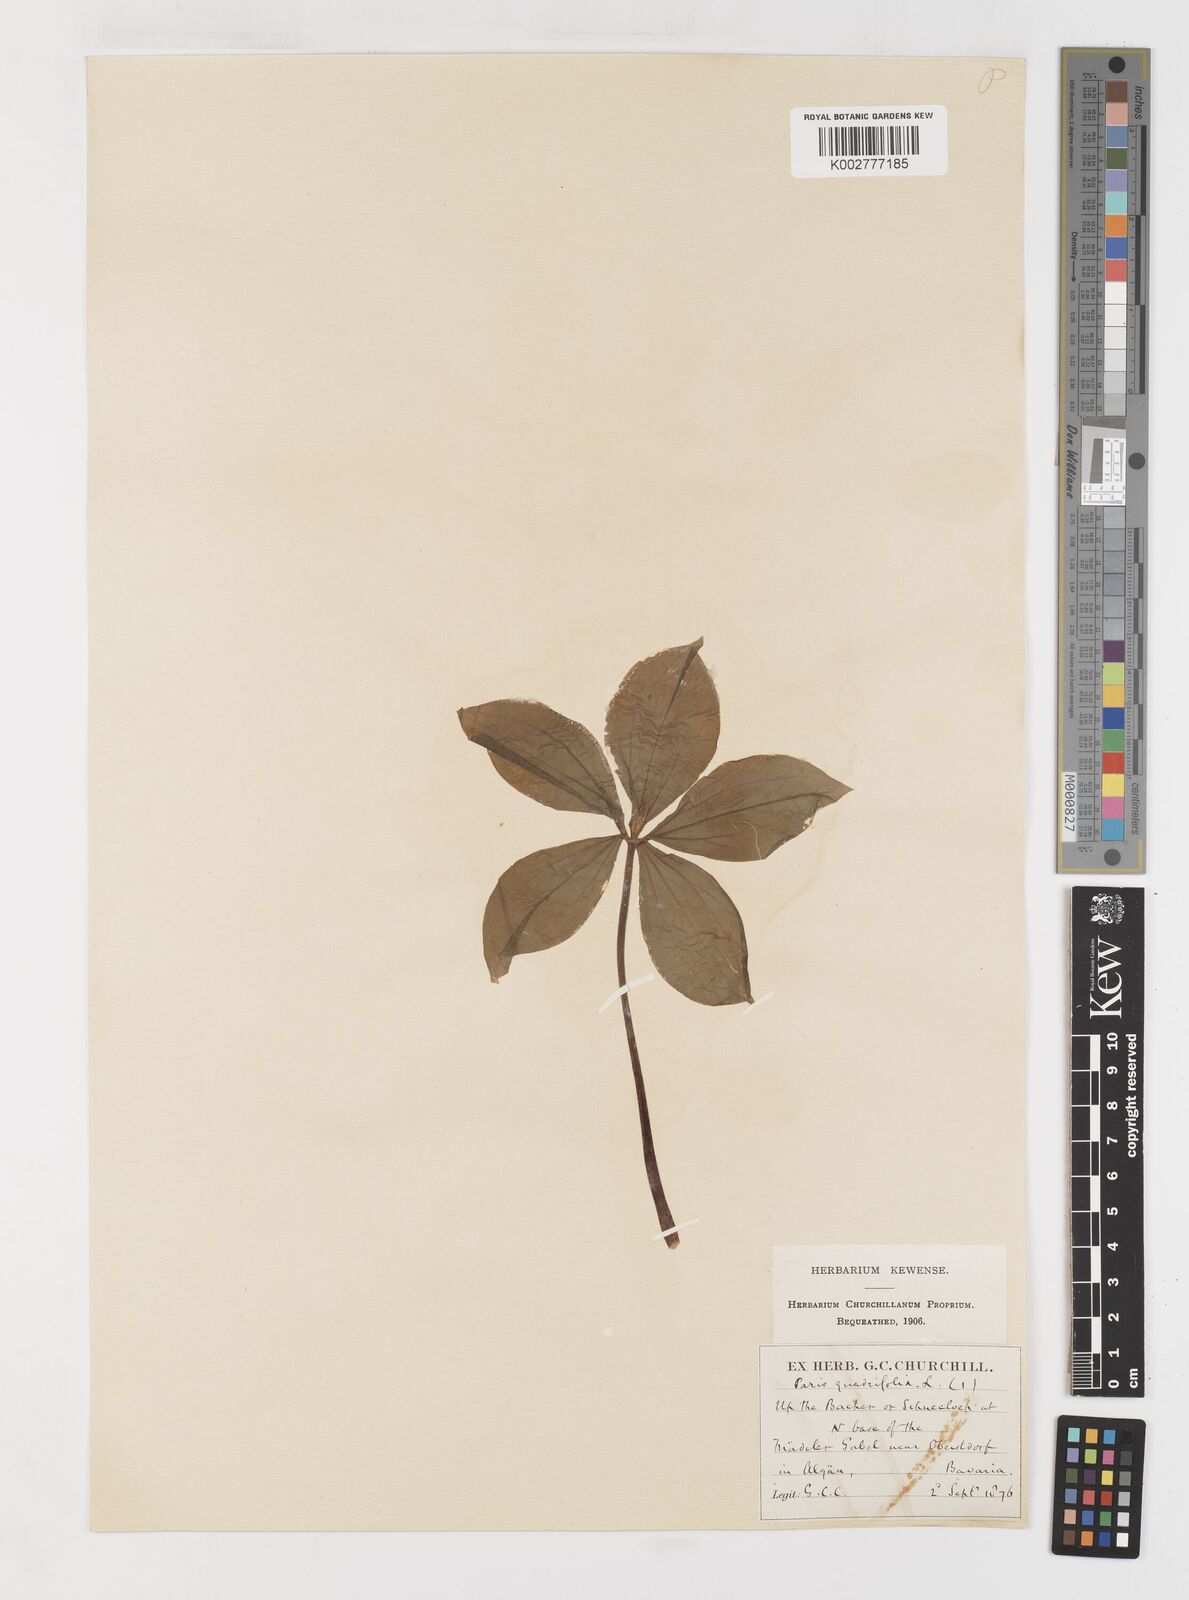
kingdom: Plantae
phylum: Tracheophyta
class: Liliopsida
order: Liliales
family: Melanthiaceae
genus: Paris
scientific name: Paris quadrifolia
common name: Herb-paris
